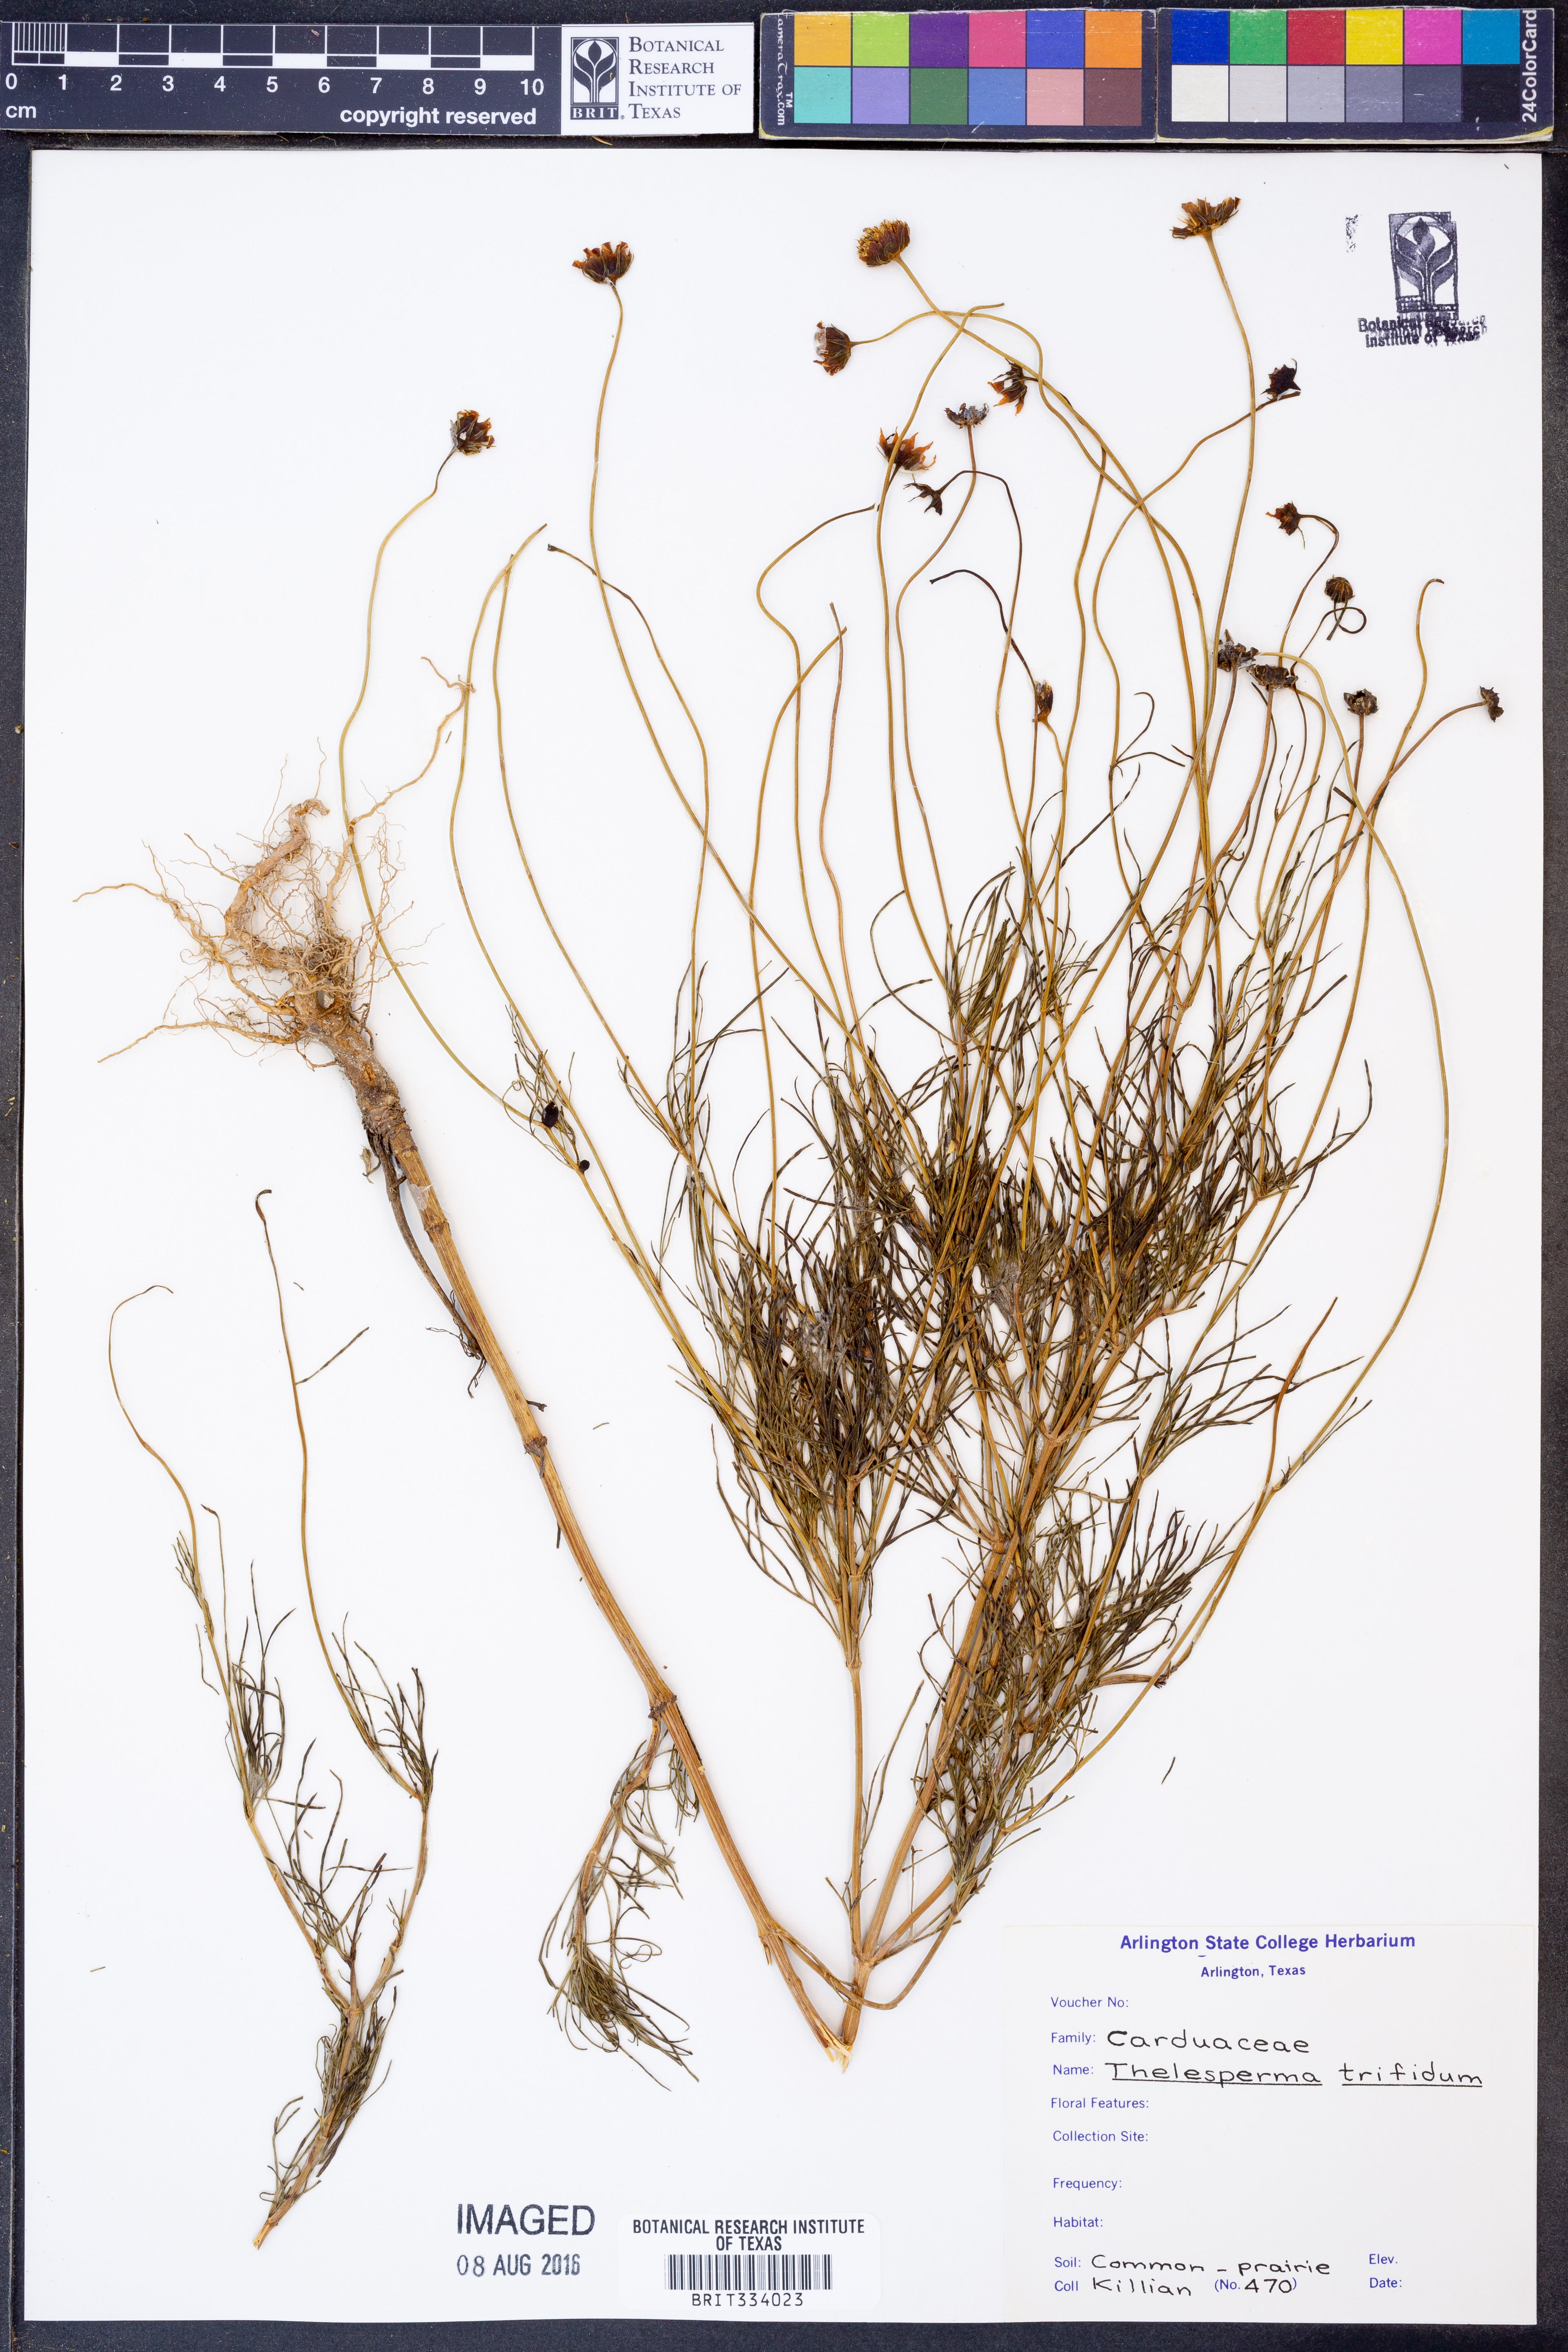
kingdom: Plantae
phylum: Tracheophyta
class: Magnoliopsida
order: Asterales
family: Asteraceae
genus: Thelesperma
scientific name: Thelesperma filifolium
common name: Stiff greenthread
